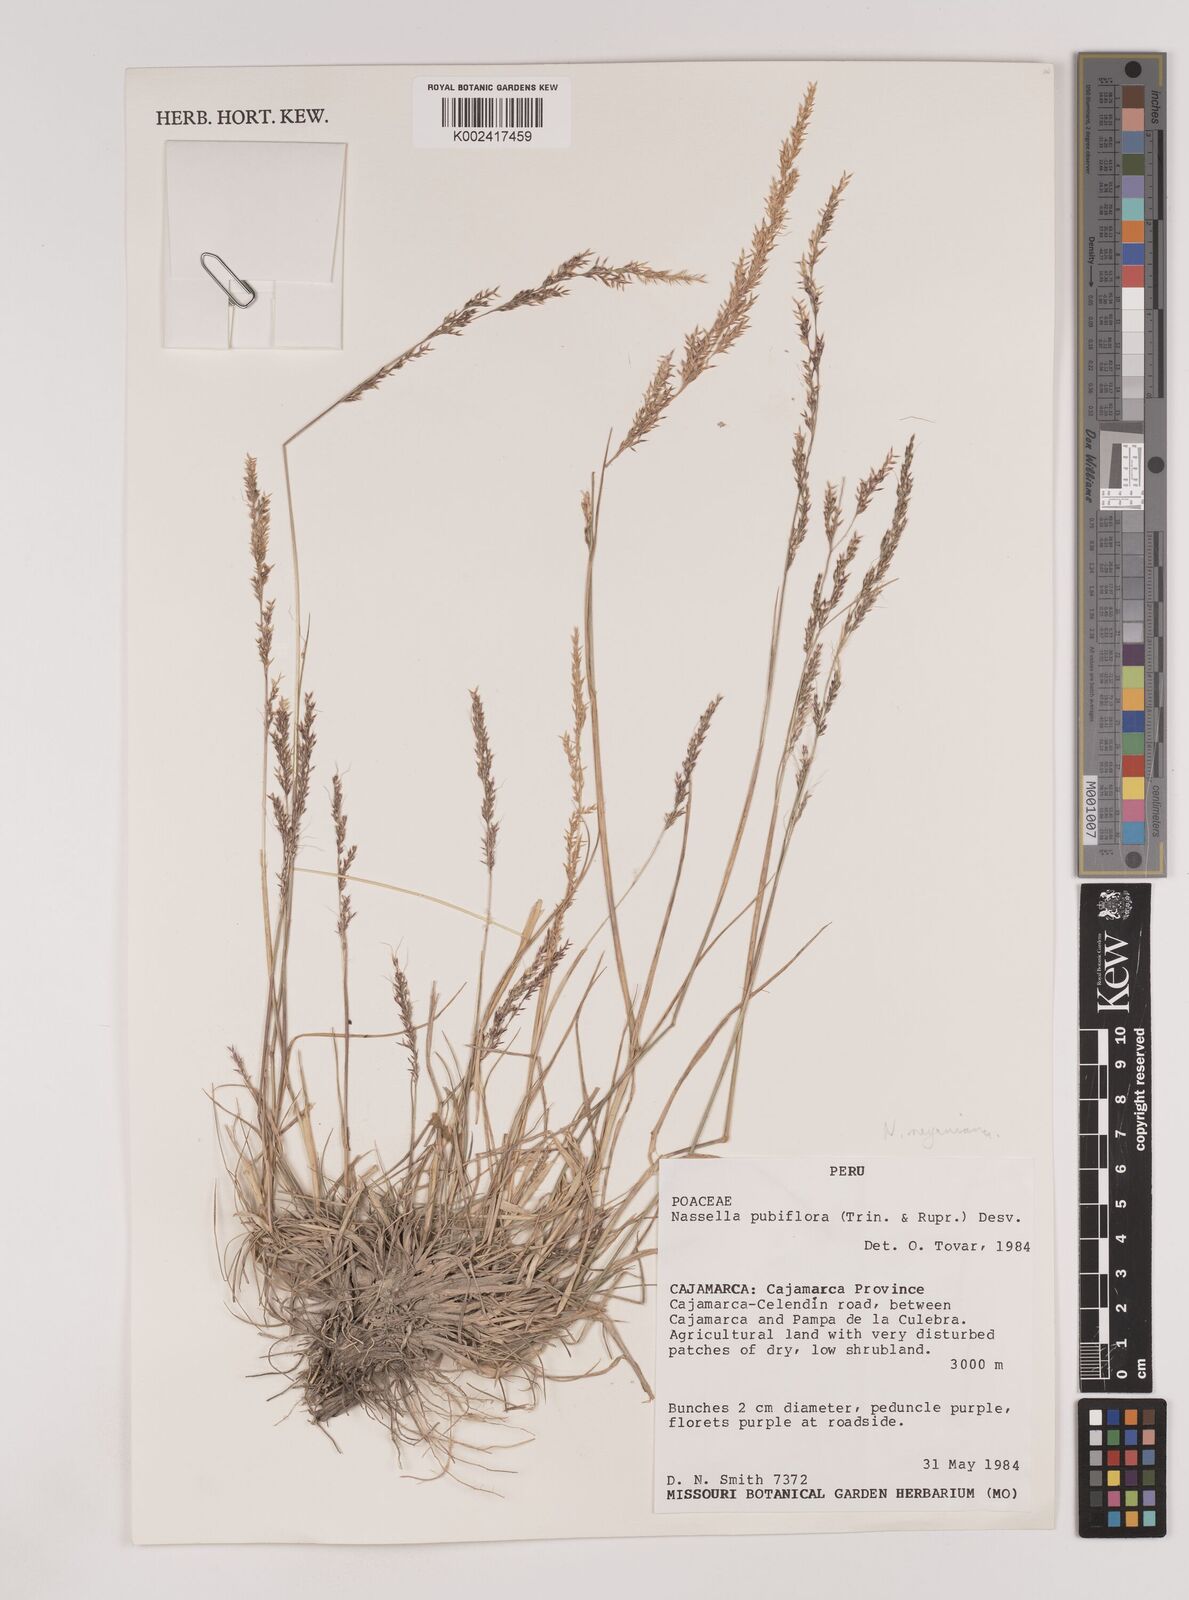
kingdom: Plantae
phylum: Tracheophyta
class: Liliopsida
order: Poales
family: Poaceae
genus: Nassella
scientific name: Nassella meyeniana
